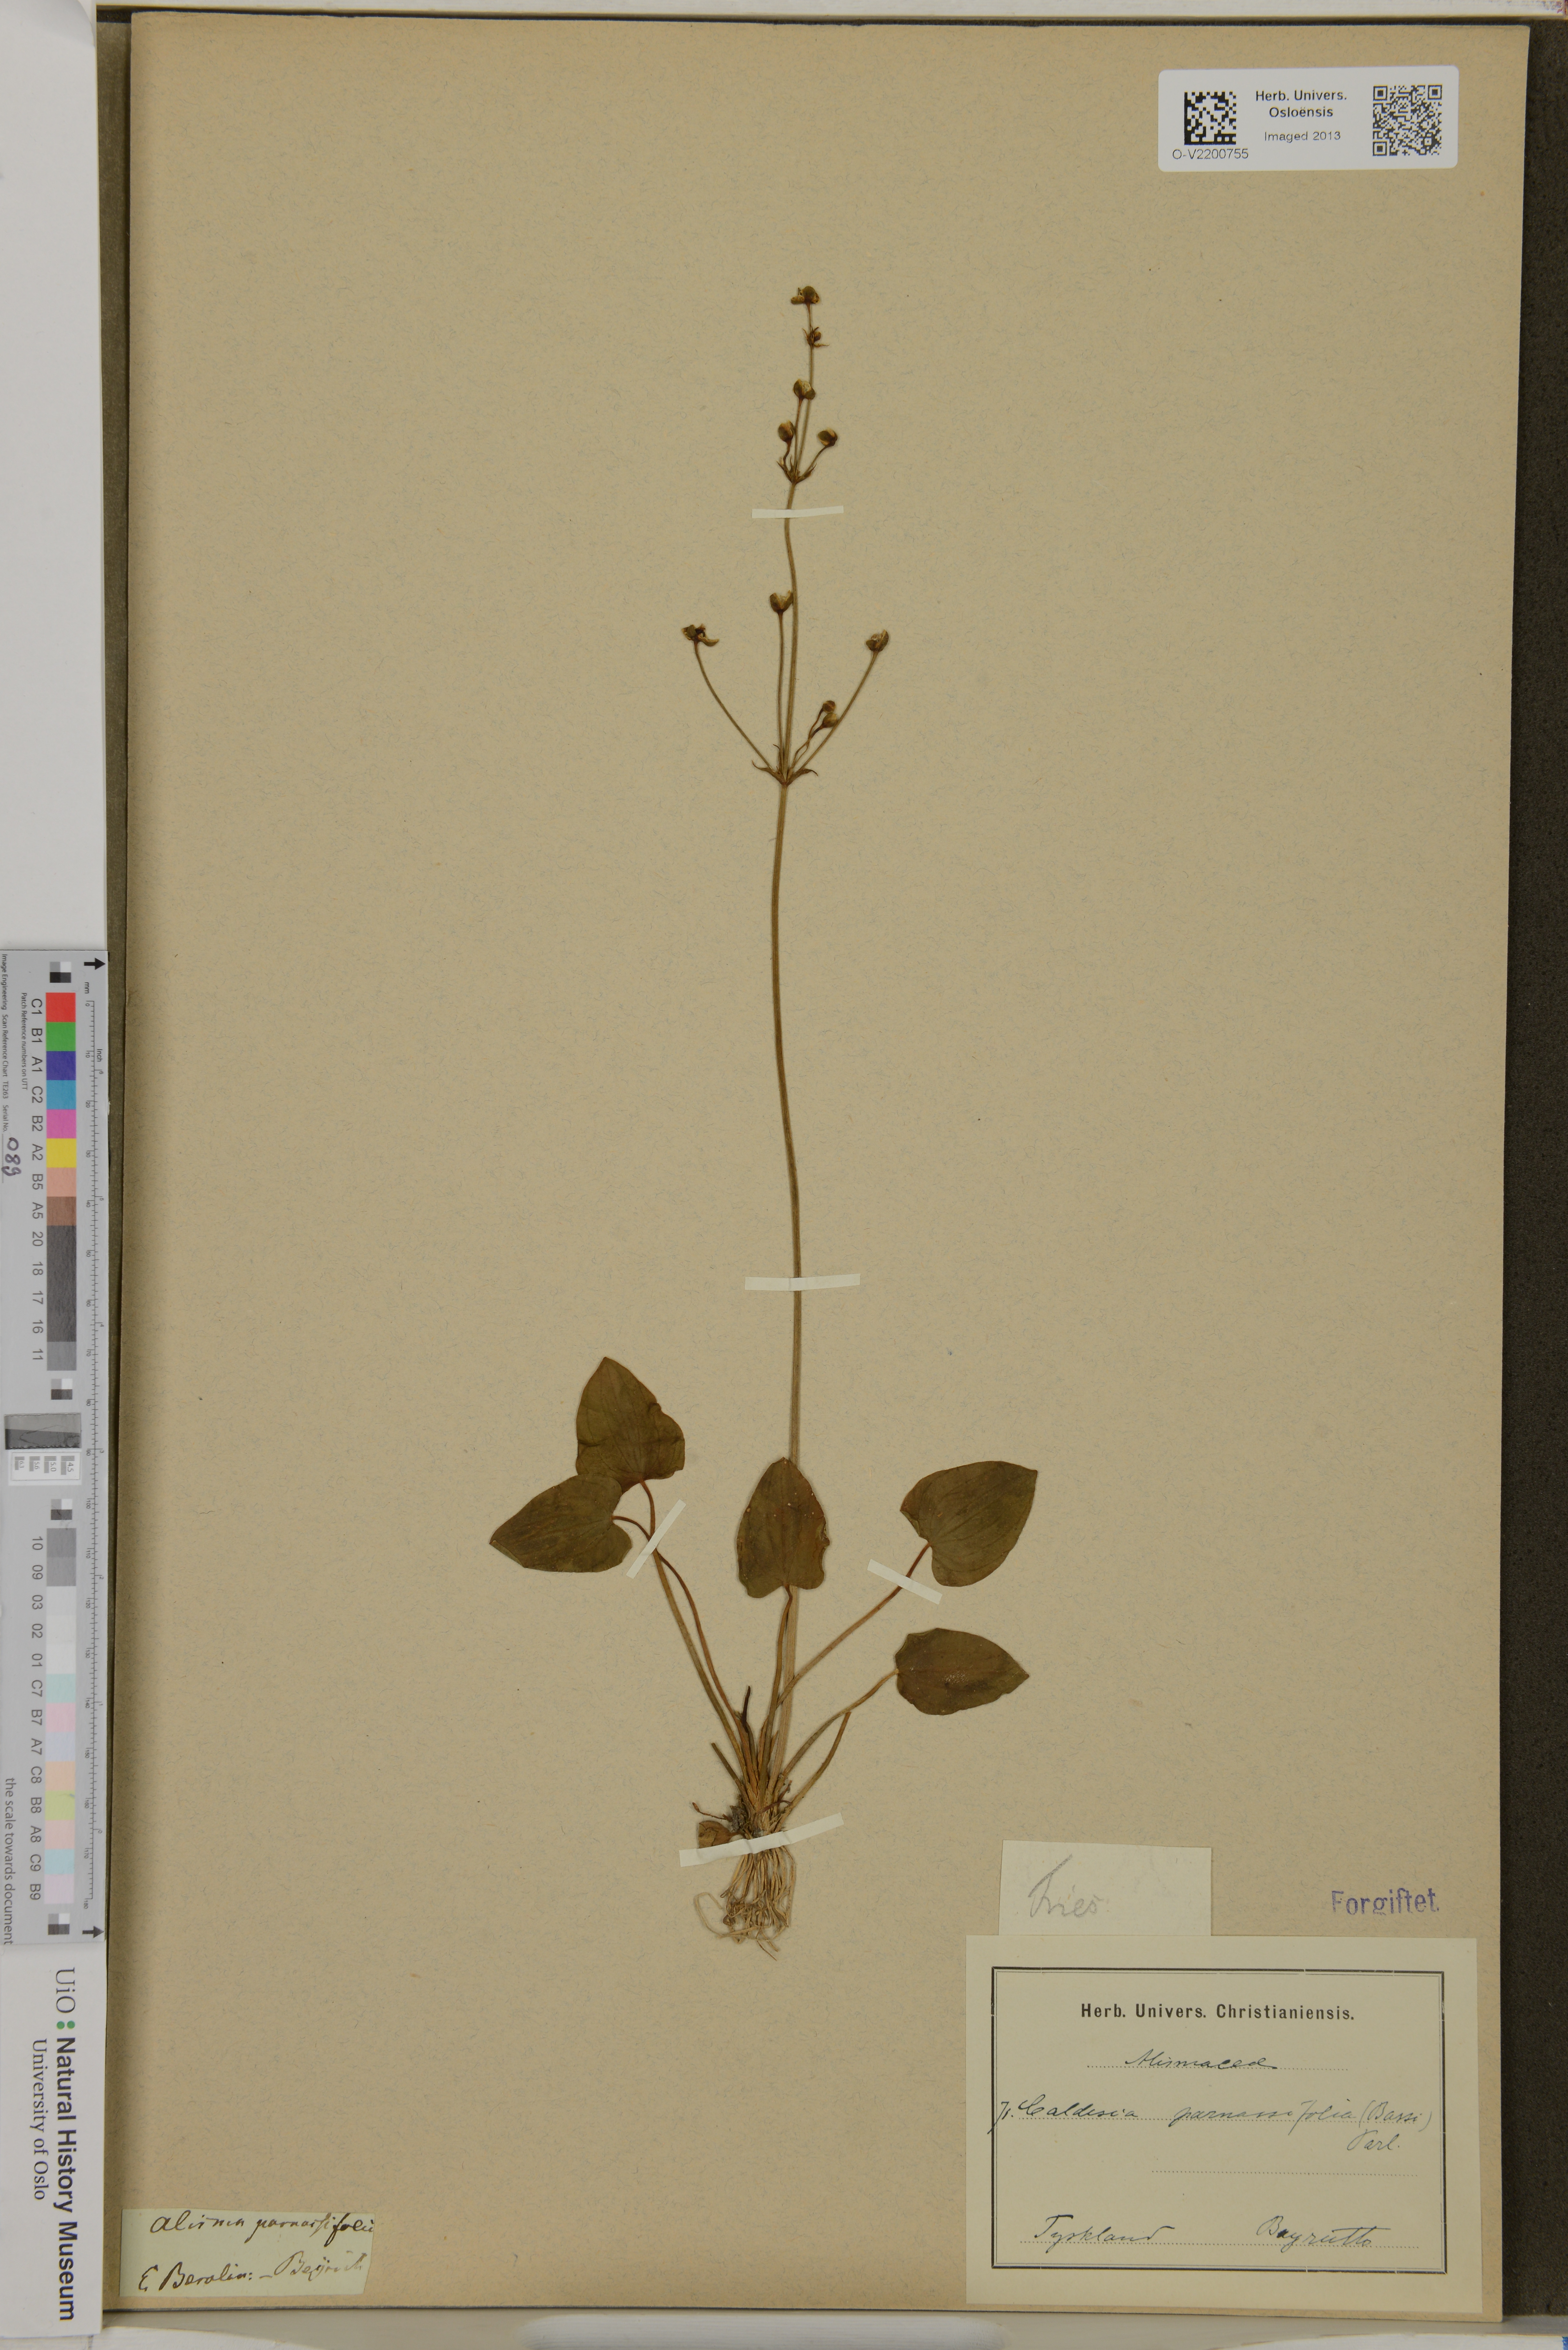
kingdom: Plantae
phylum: Tracheophyta
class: Liliopsida
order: Alismatales
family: Alismataceae
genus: Caldesia
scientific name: Caldesia parnassifolia
